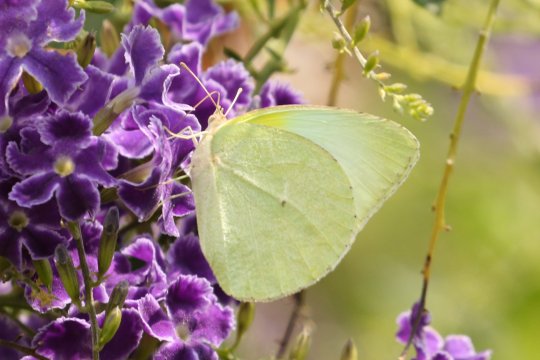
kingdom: Animalia
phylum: Arthropoda
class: Insecta
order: Lepidoptera
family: Pieridae
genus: Kricogonia
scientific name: Kricogonia lyside
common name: Lyside Sulphur
